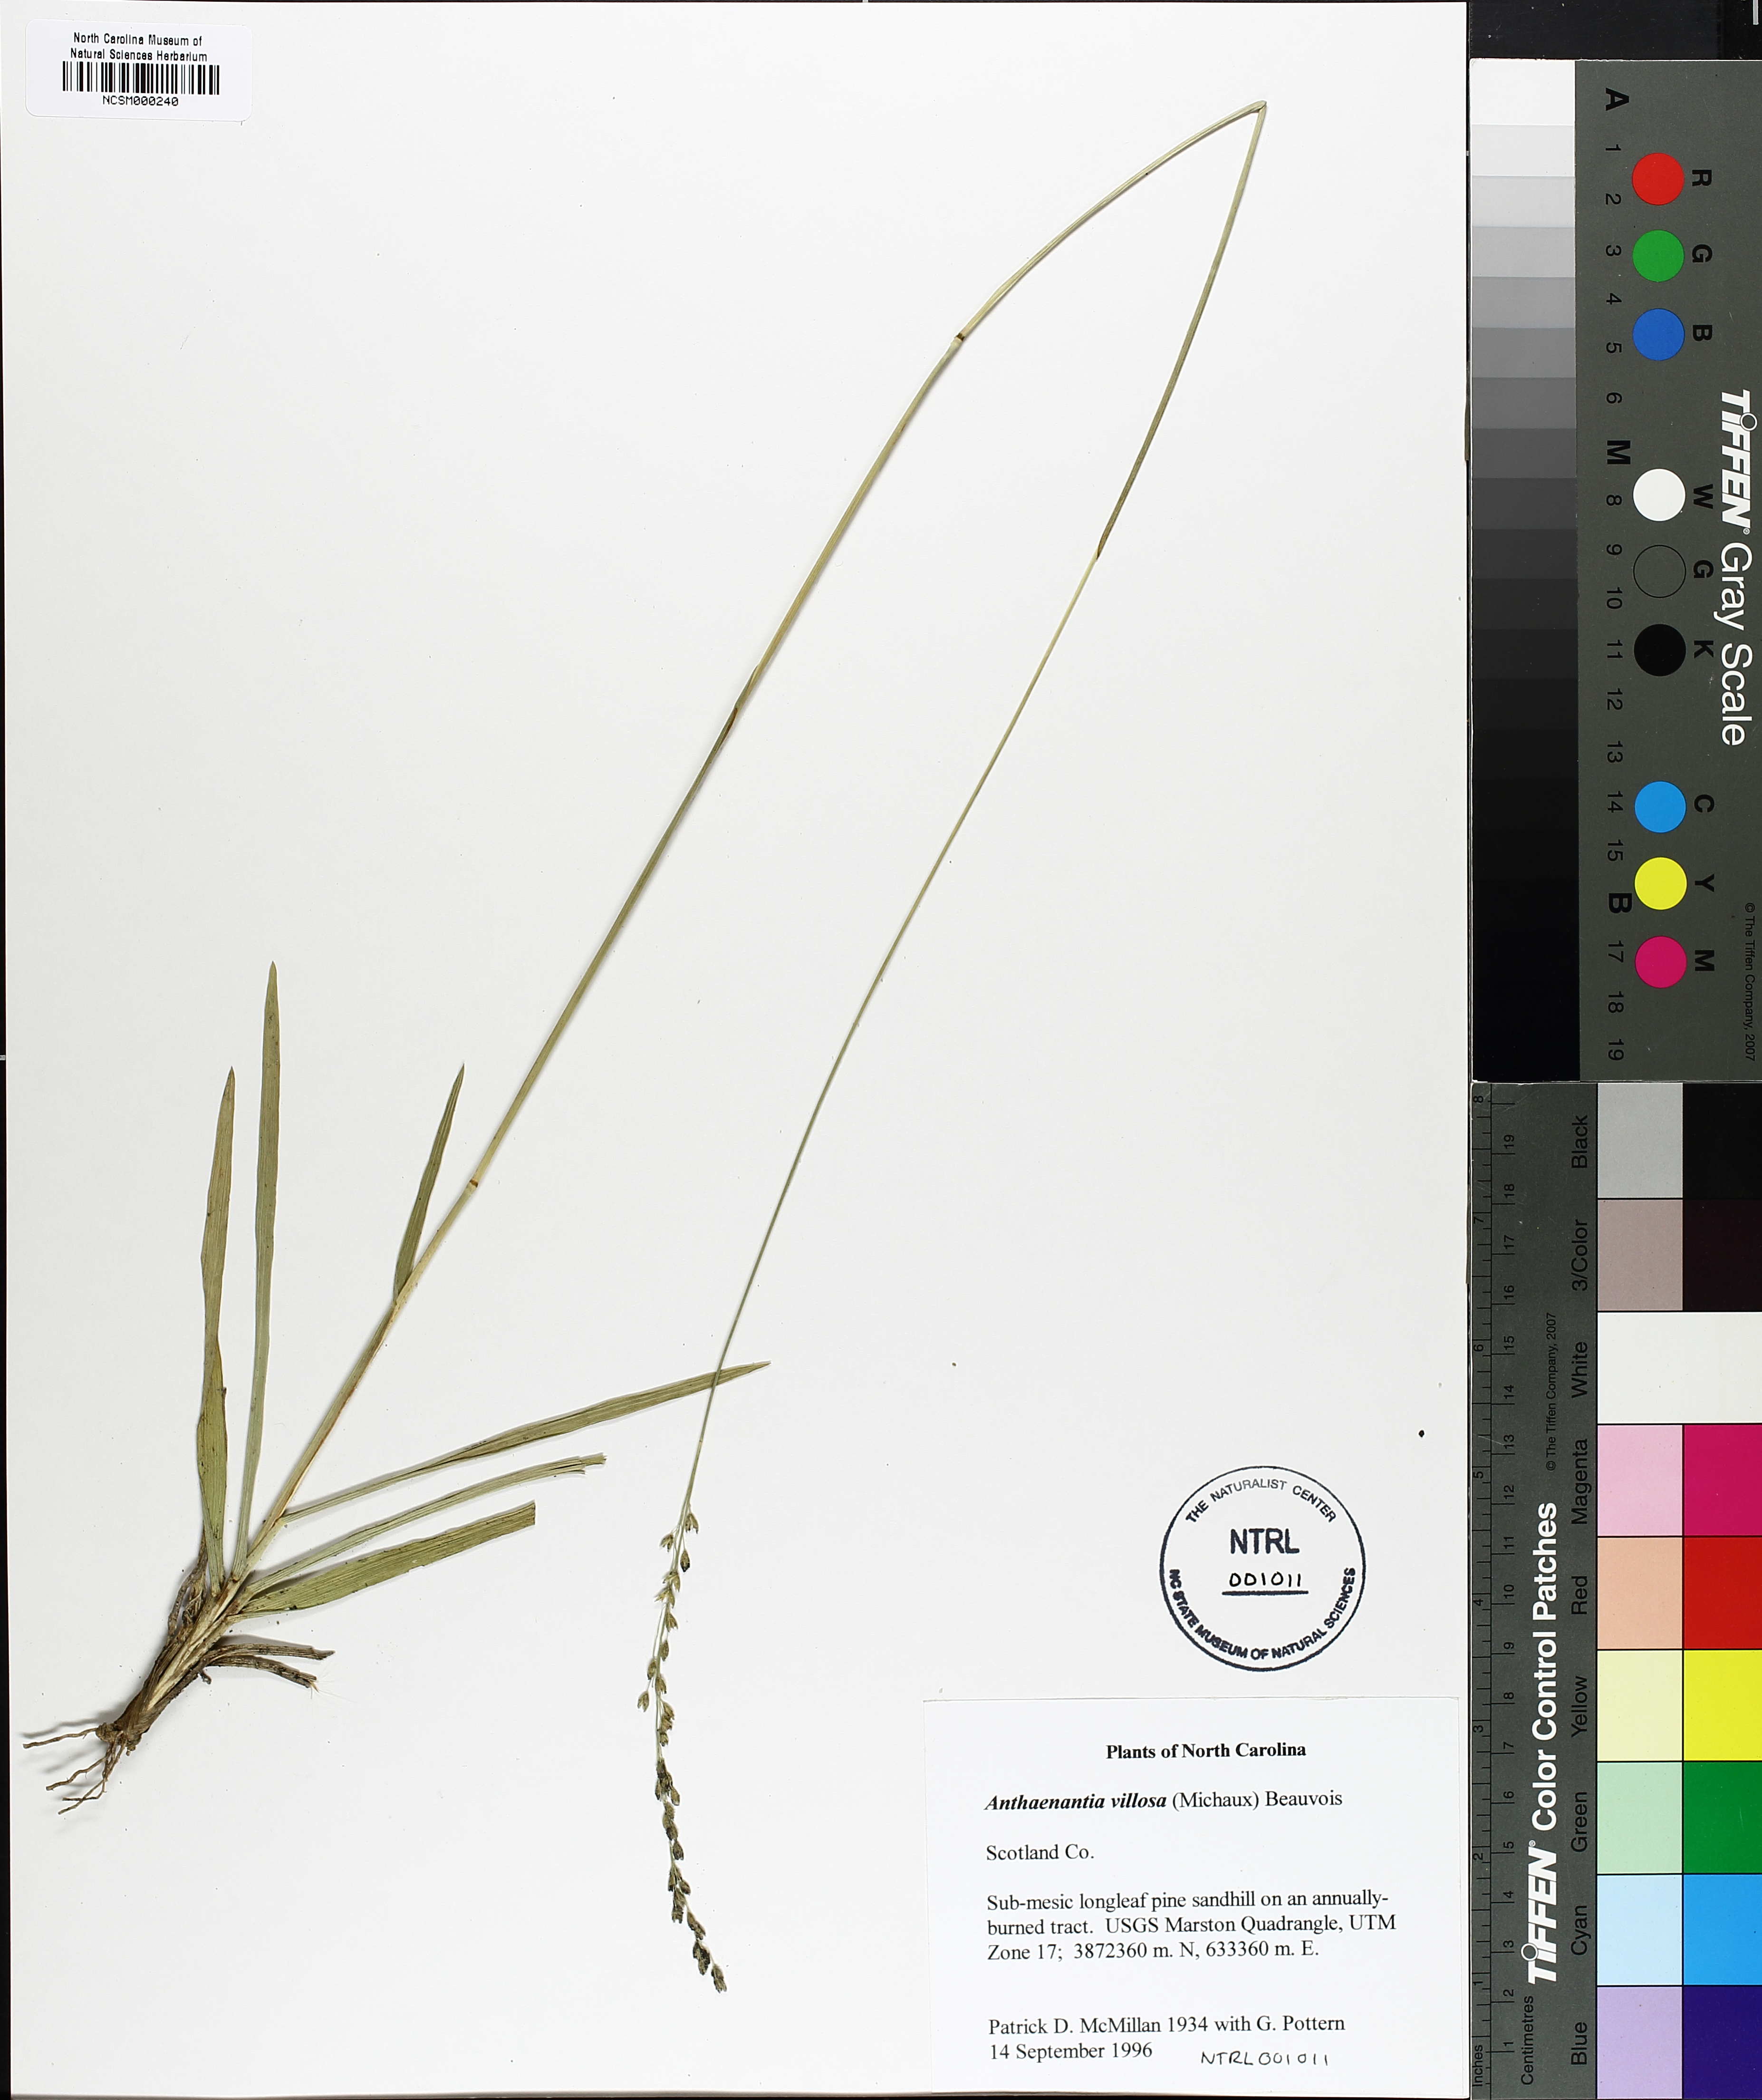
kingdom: Plantae
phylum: Tracheophyta
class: Liliopsida
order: Poales
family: Poaceae
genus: Anthenantia
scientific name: Anthenantia villosa
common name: Green silkyscale
